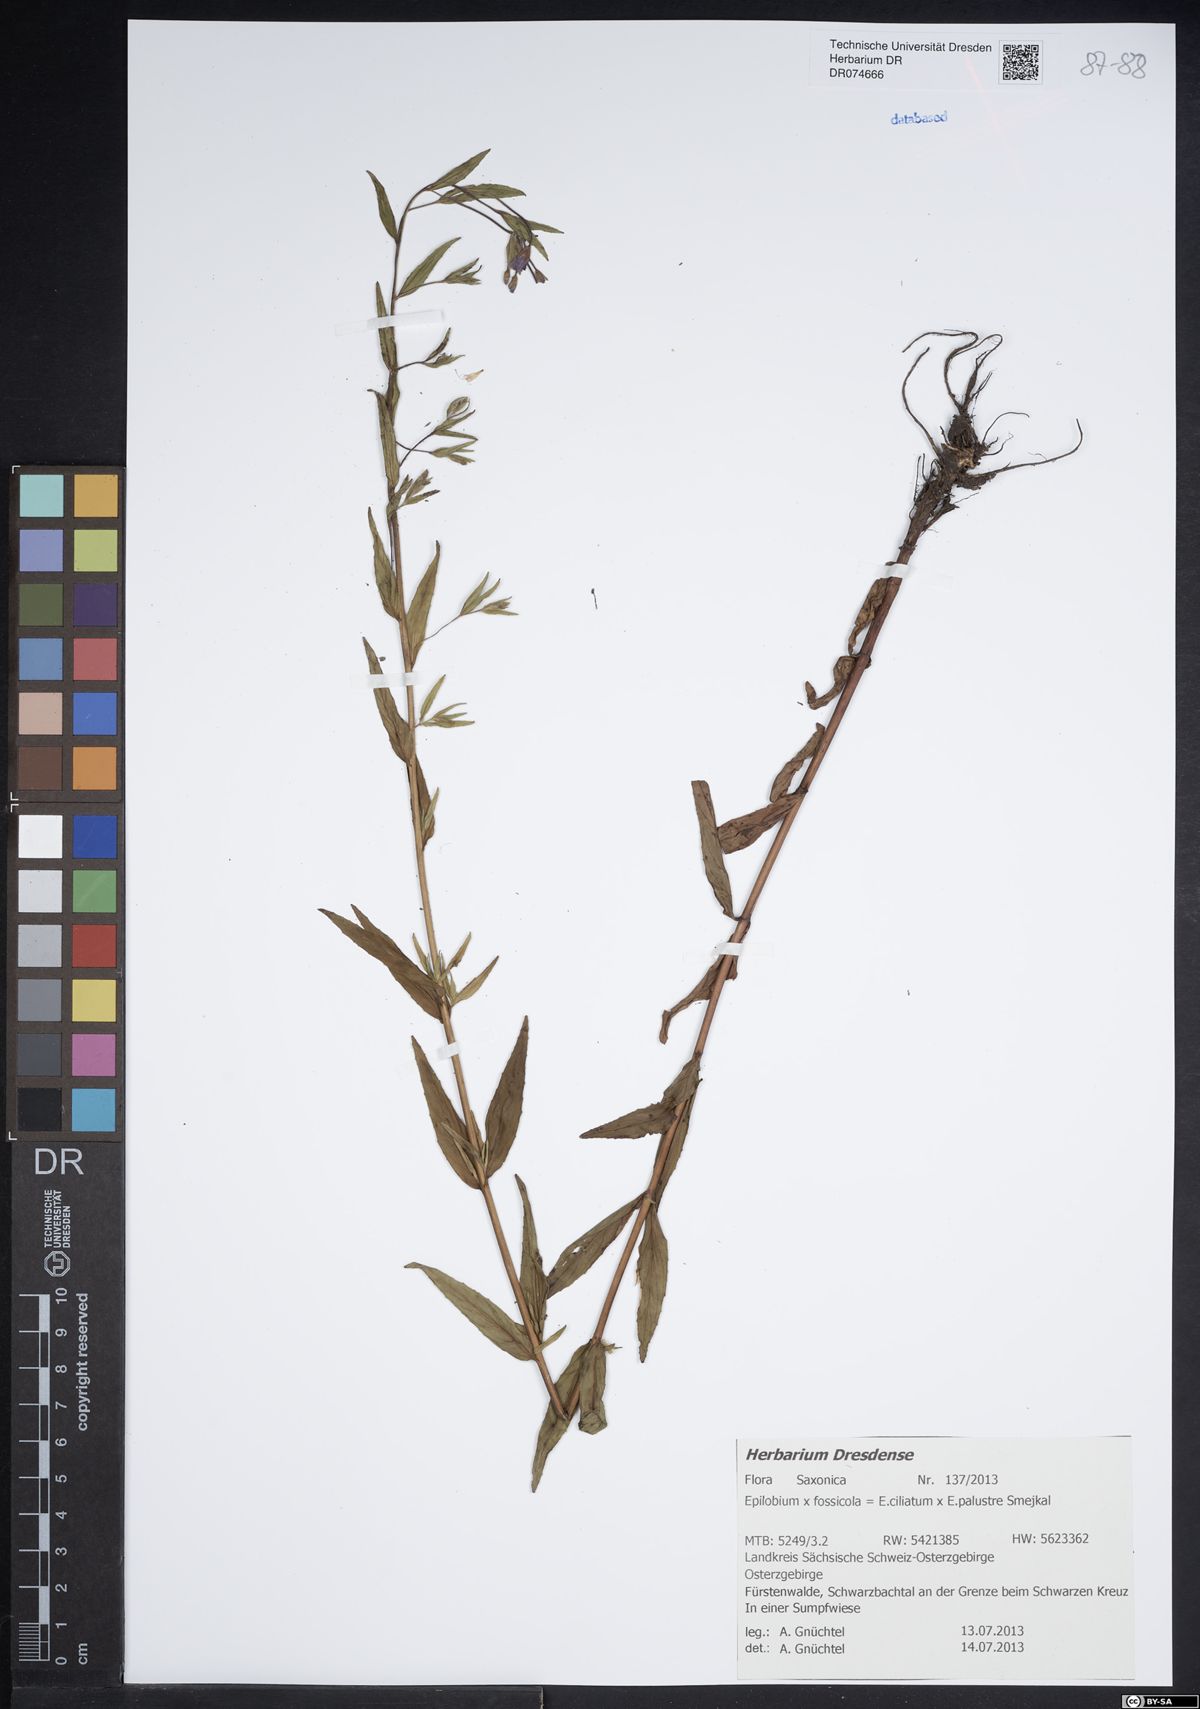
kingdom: Plantae
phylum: Tracheophyta
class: Magnoliopsida
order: Myrtales
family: Onagraceae
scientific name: Onagraceae
